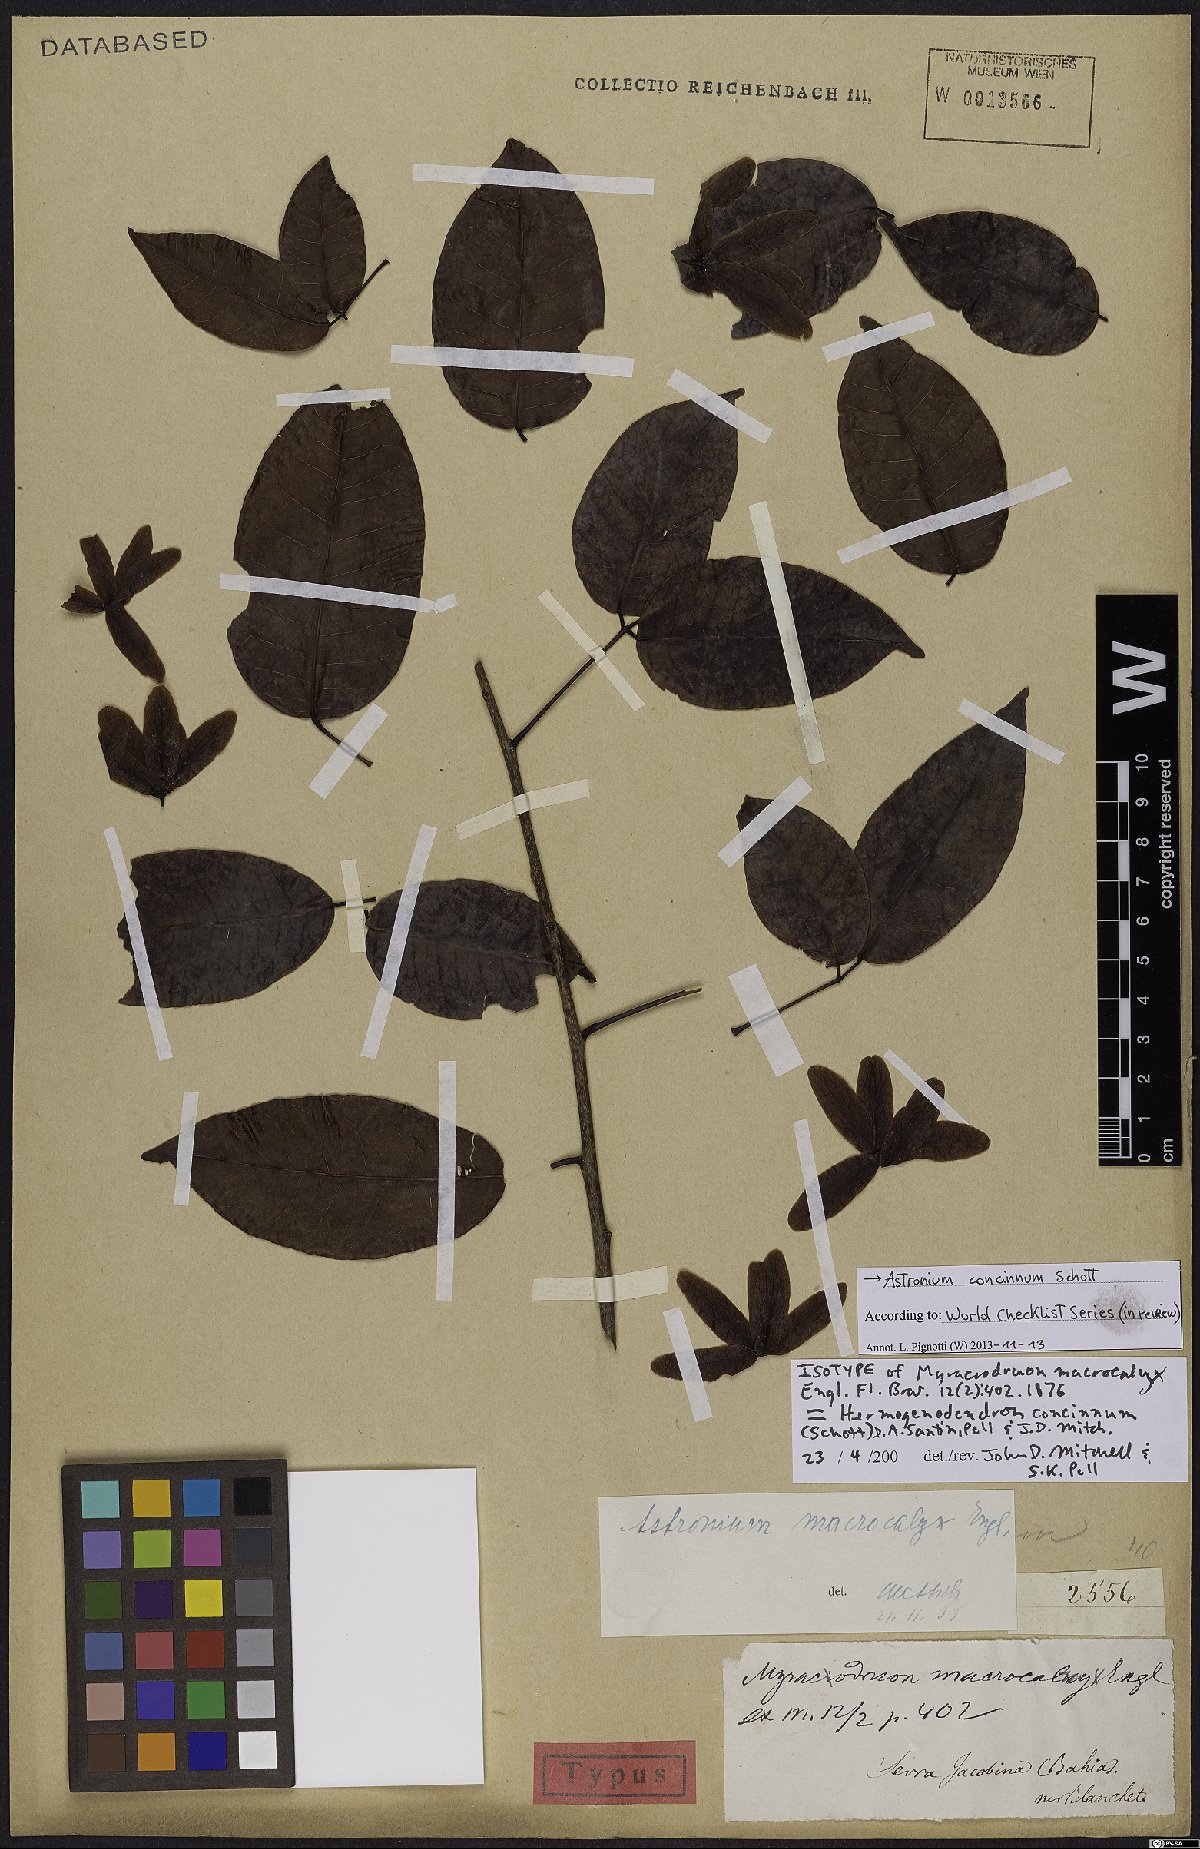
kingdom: Plantae
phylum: Tracheophyta
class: Magnoliopsida
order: Sapindales
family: Anacardiaceae
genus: Astronium
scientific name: Astronium concinnum
